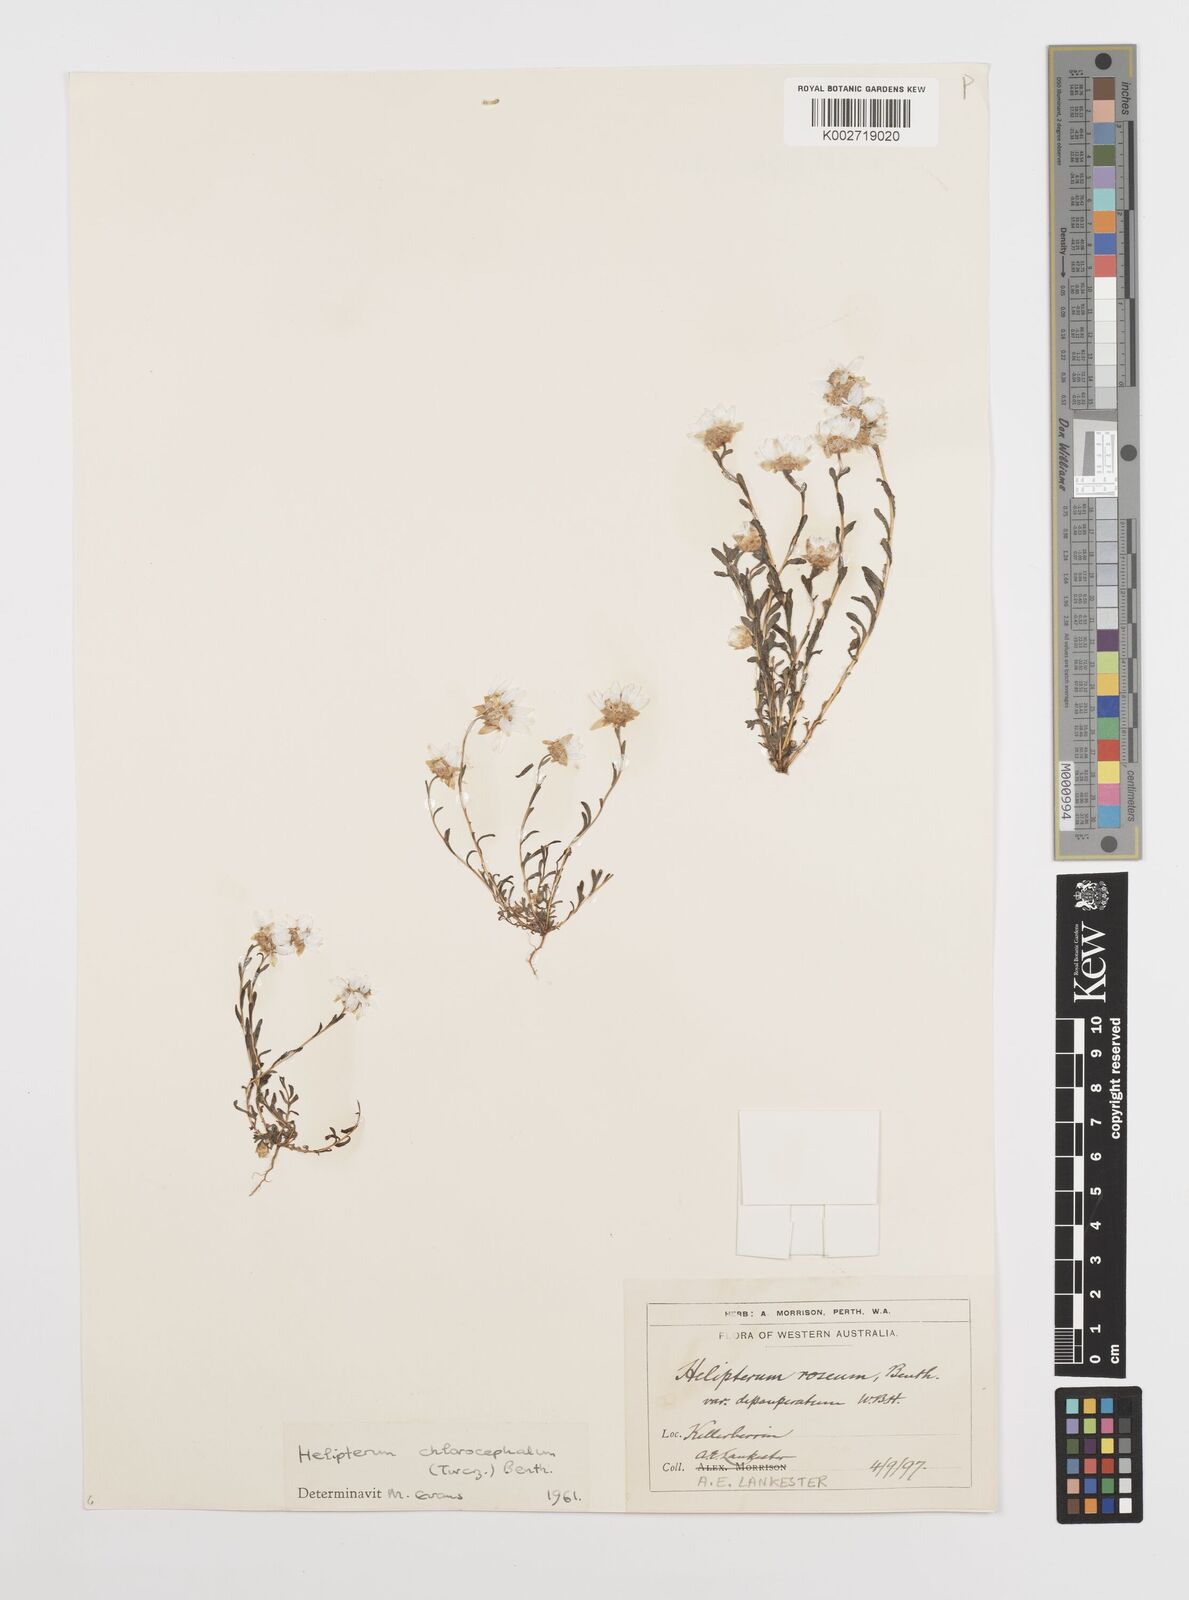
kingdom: Plantae
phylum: Tracheophyta
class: Magnoliopsida
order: Asterales
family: Asteraceae
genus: Rhodanthe
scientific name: Rhodanthe chlorocephala
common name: Rosy sunray
